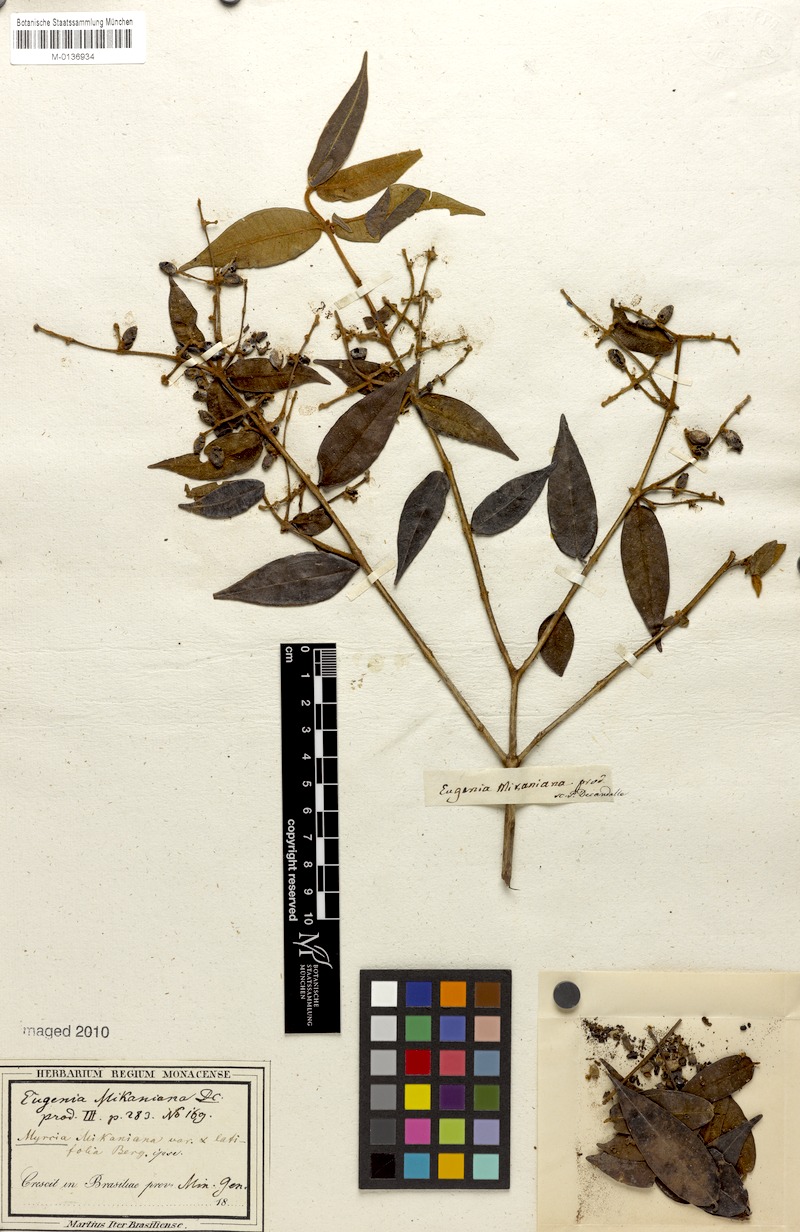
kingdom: Plantae
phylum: Tracheophyta
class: Magnoliopsida
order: Myrtales
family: Myrtaceae
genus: Myrcia
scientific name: Myrcia splendens
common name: Surinam cherry
